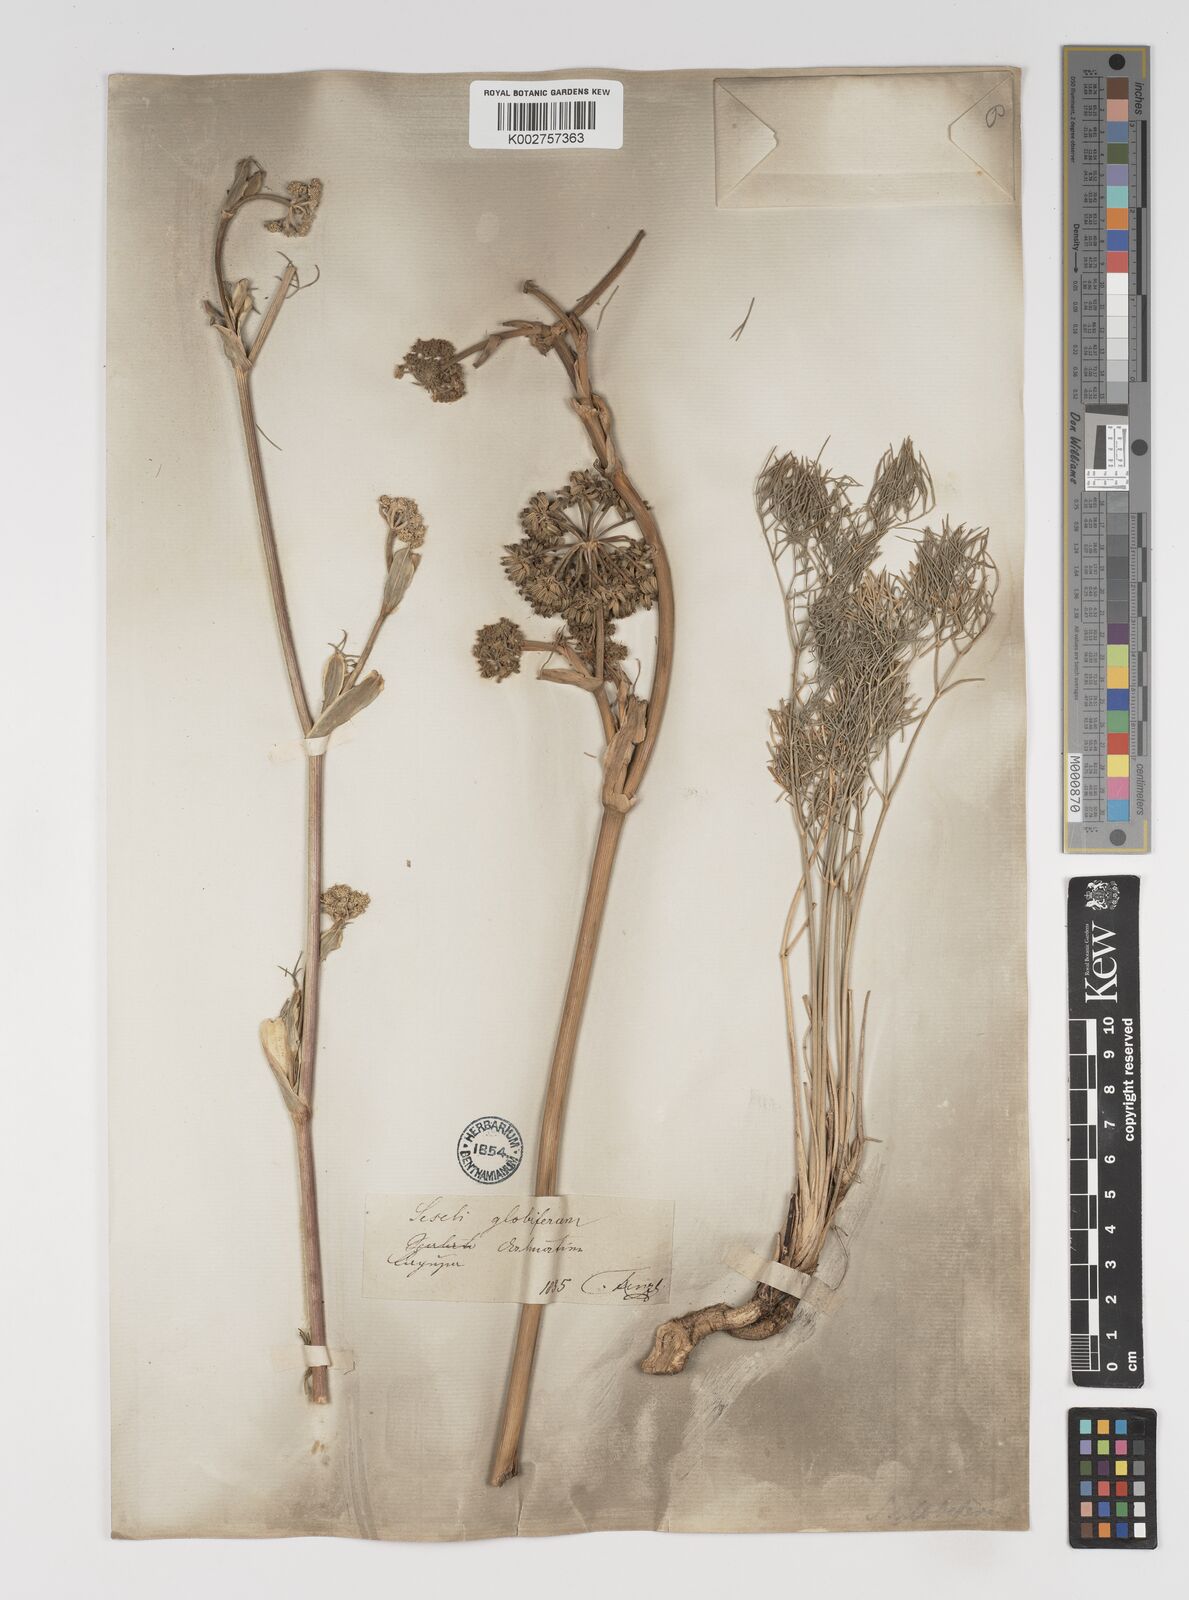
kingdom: Plantae
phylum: Tracheophyta
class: Magnoliopsida
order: Apiales
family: Apiaceae
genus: Seseli
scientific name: Seseli globiferum
